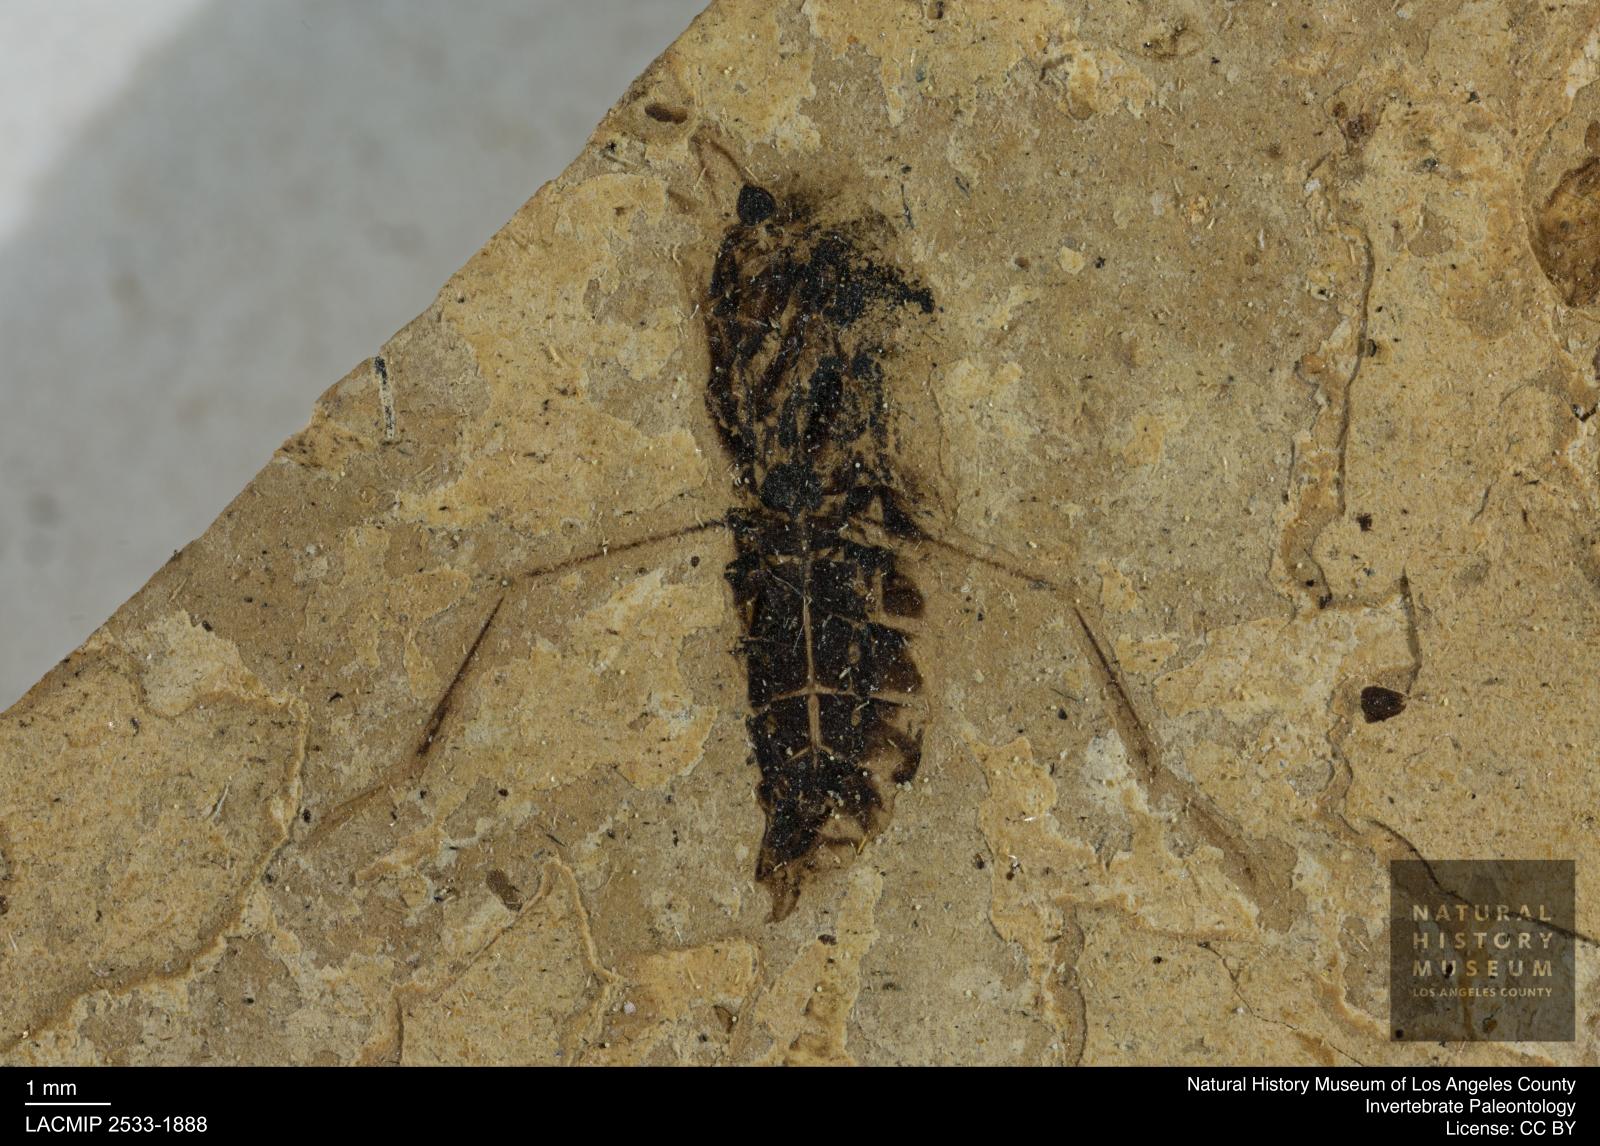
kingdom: Animalia
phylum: Arthropoda
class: Insecta
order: Hemiptera
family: Notonectidae
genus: Anisops
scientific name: Anisops Notonecta deichmuelleri
